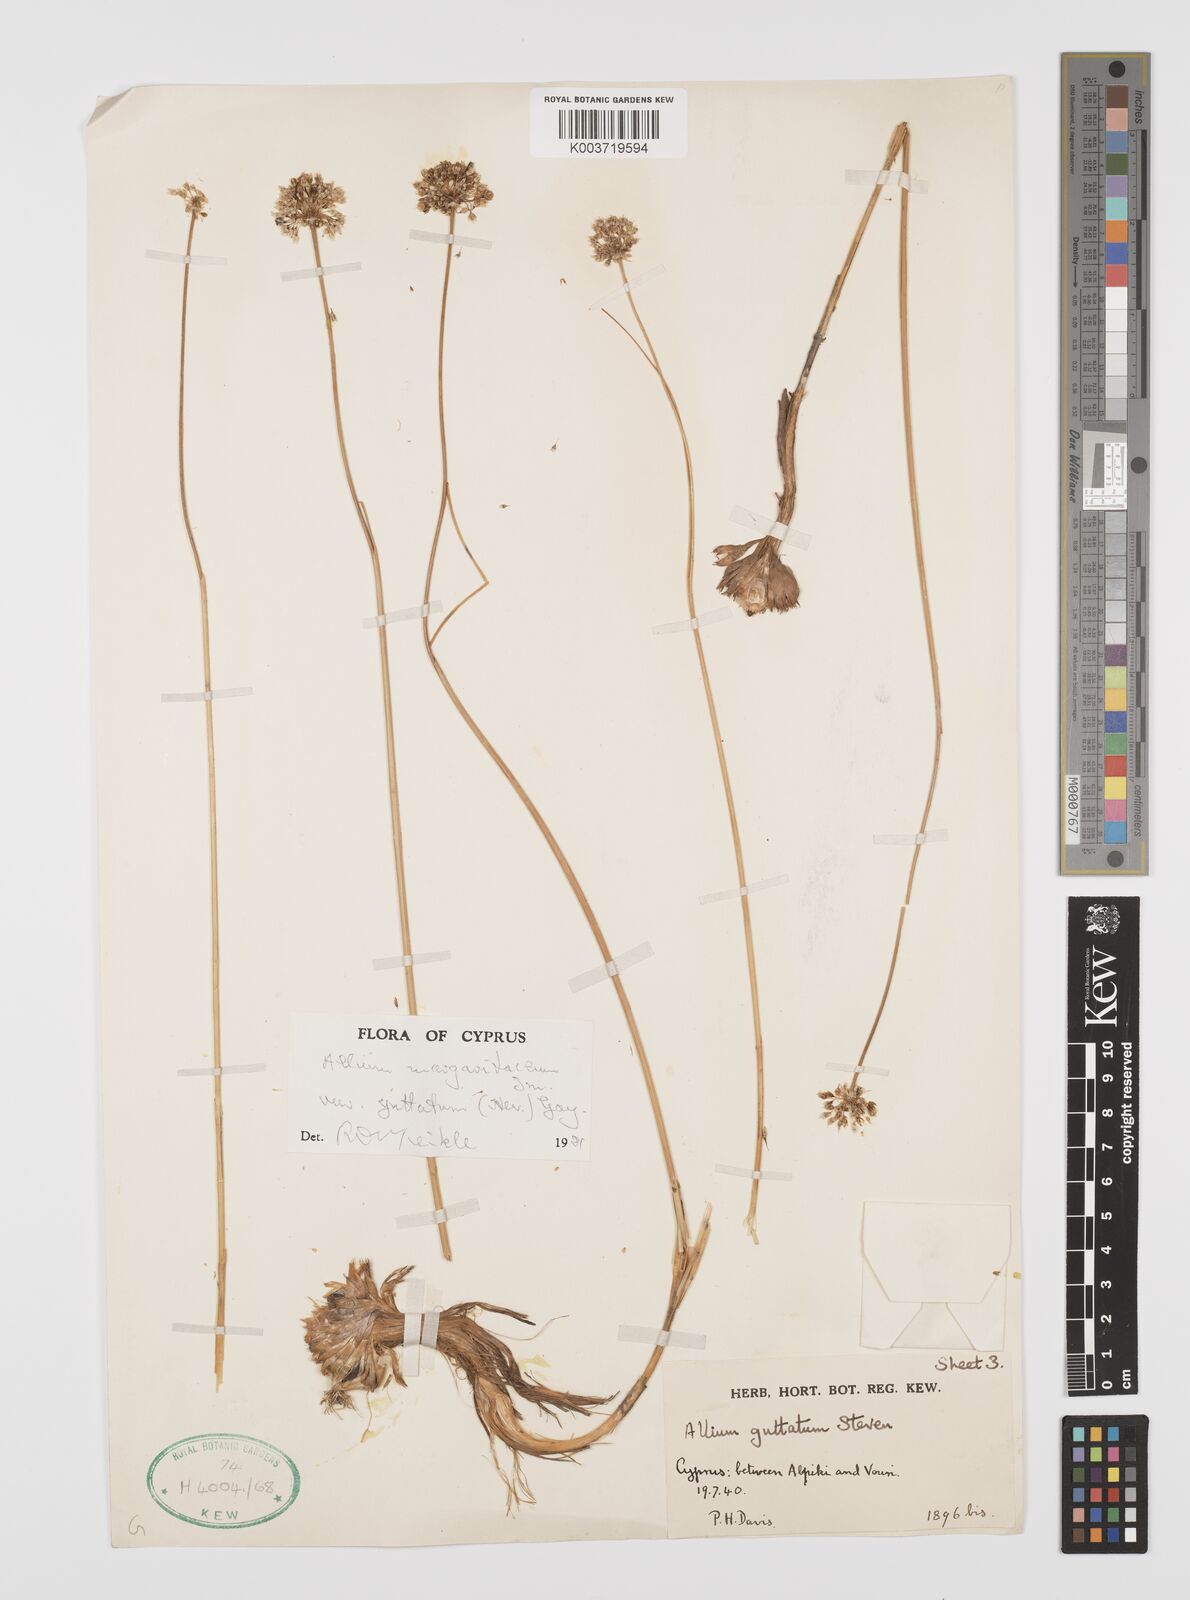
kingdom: Plantae
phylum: Tracheophyta
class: Liliopsida
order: Asparagales
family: Amaryllidaceae
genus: Allium
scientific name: Allium guttatum
